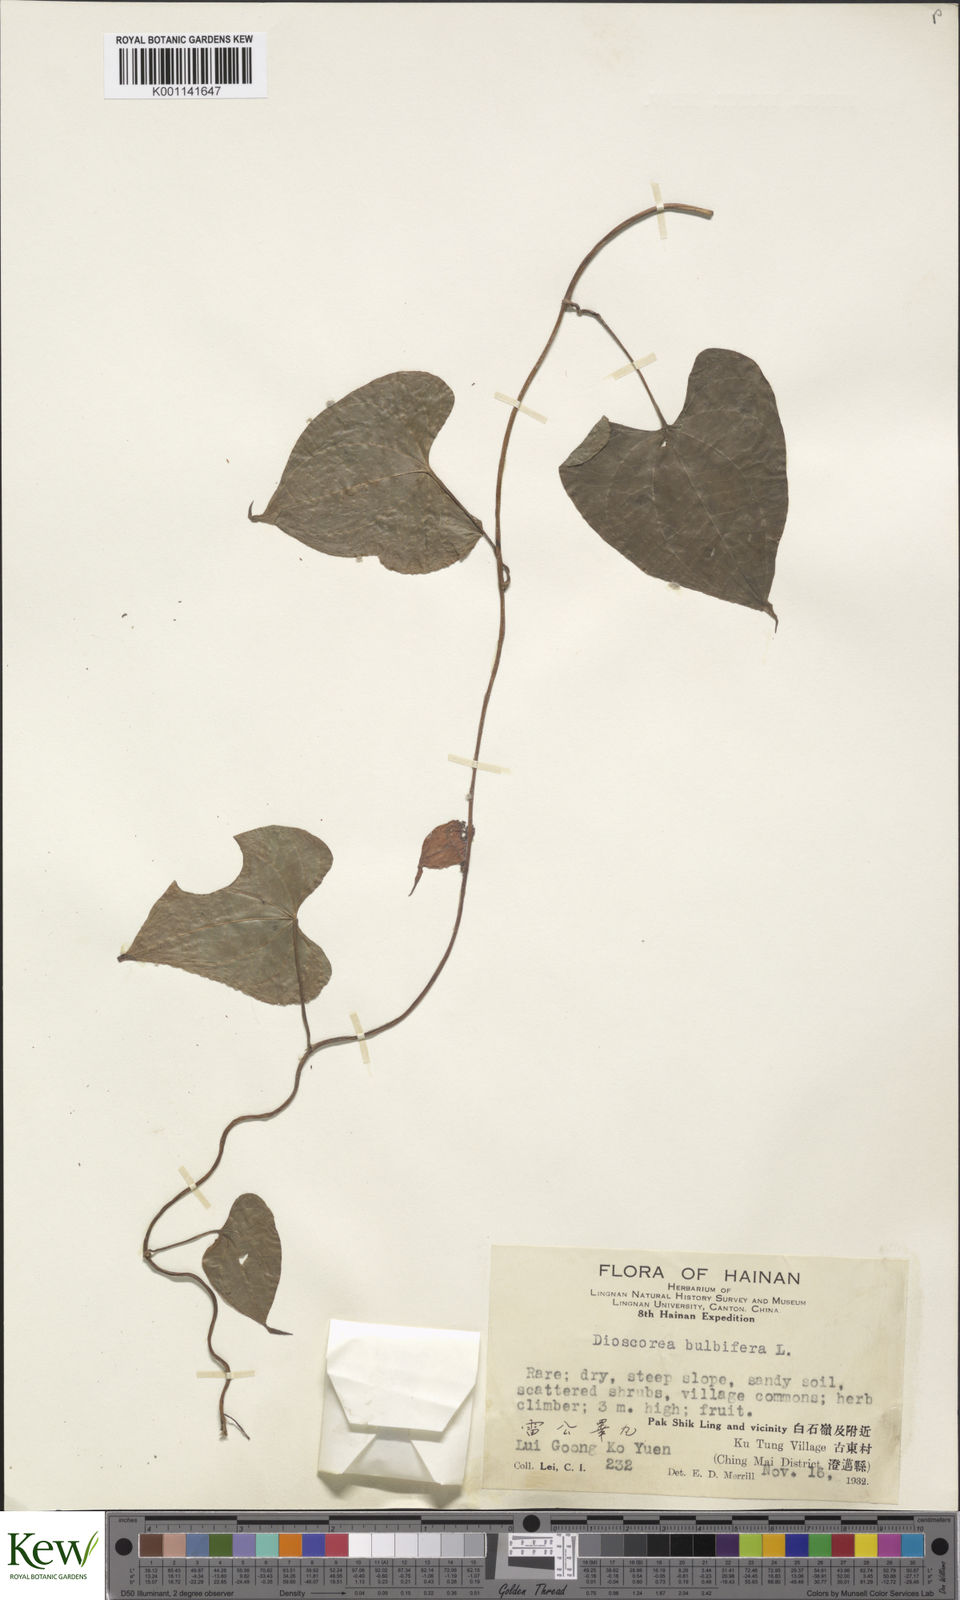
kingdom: Plantae
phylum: Tracheophyta
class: Liliopsida
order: Dioscoreales
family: Dioscoreaceae
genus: Dioscorea
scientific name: Dioscorea bulbifera
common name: Air yam
